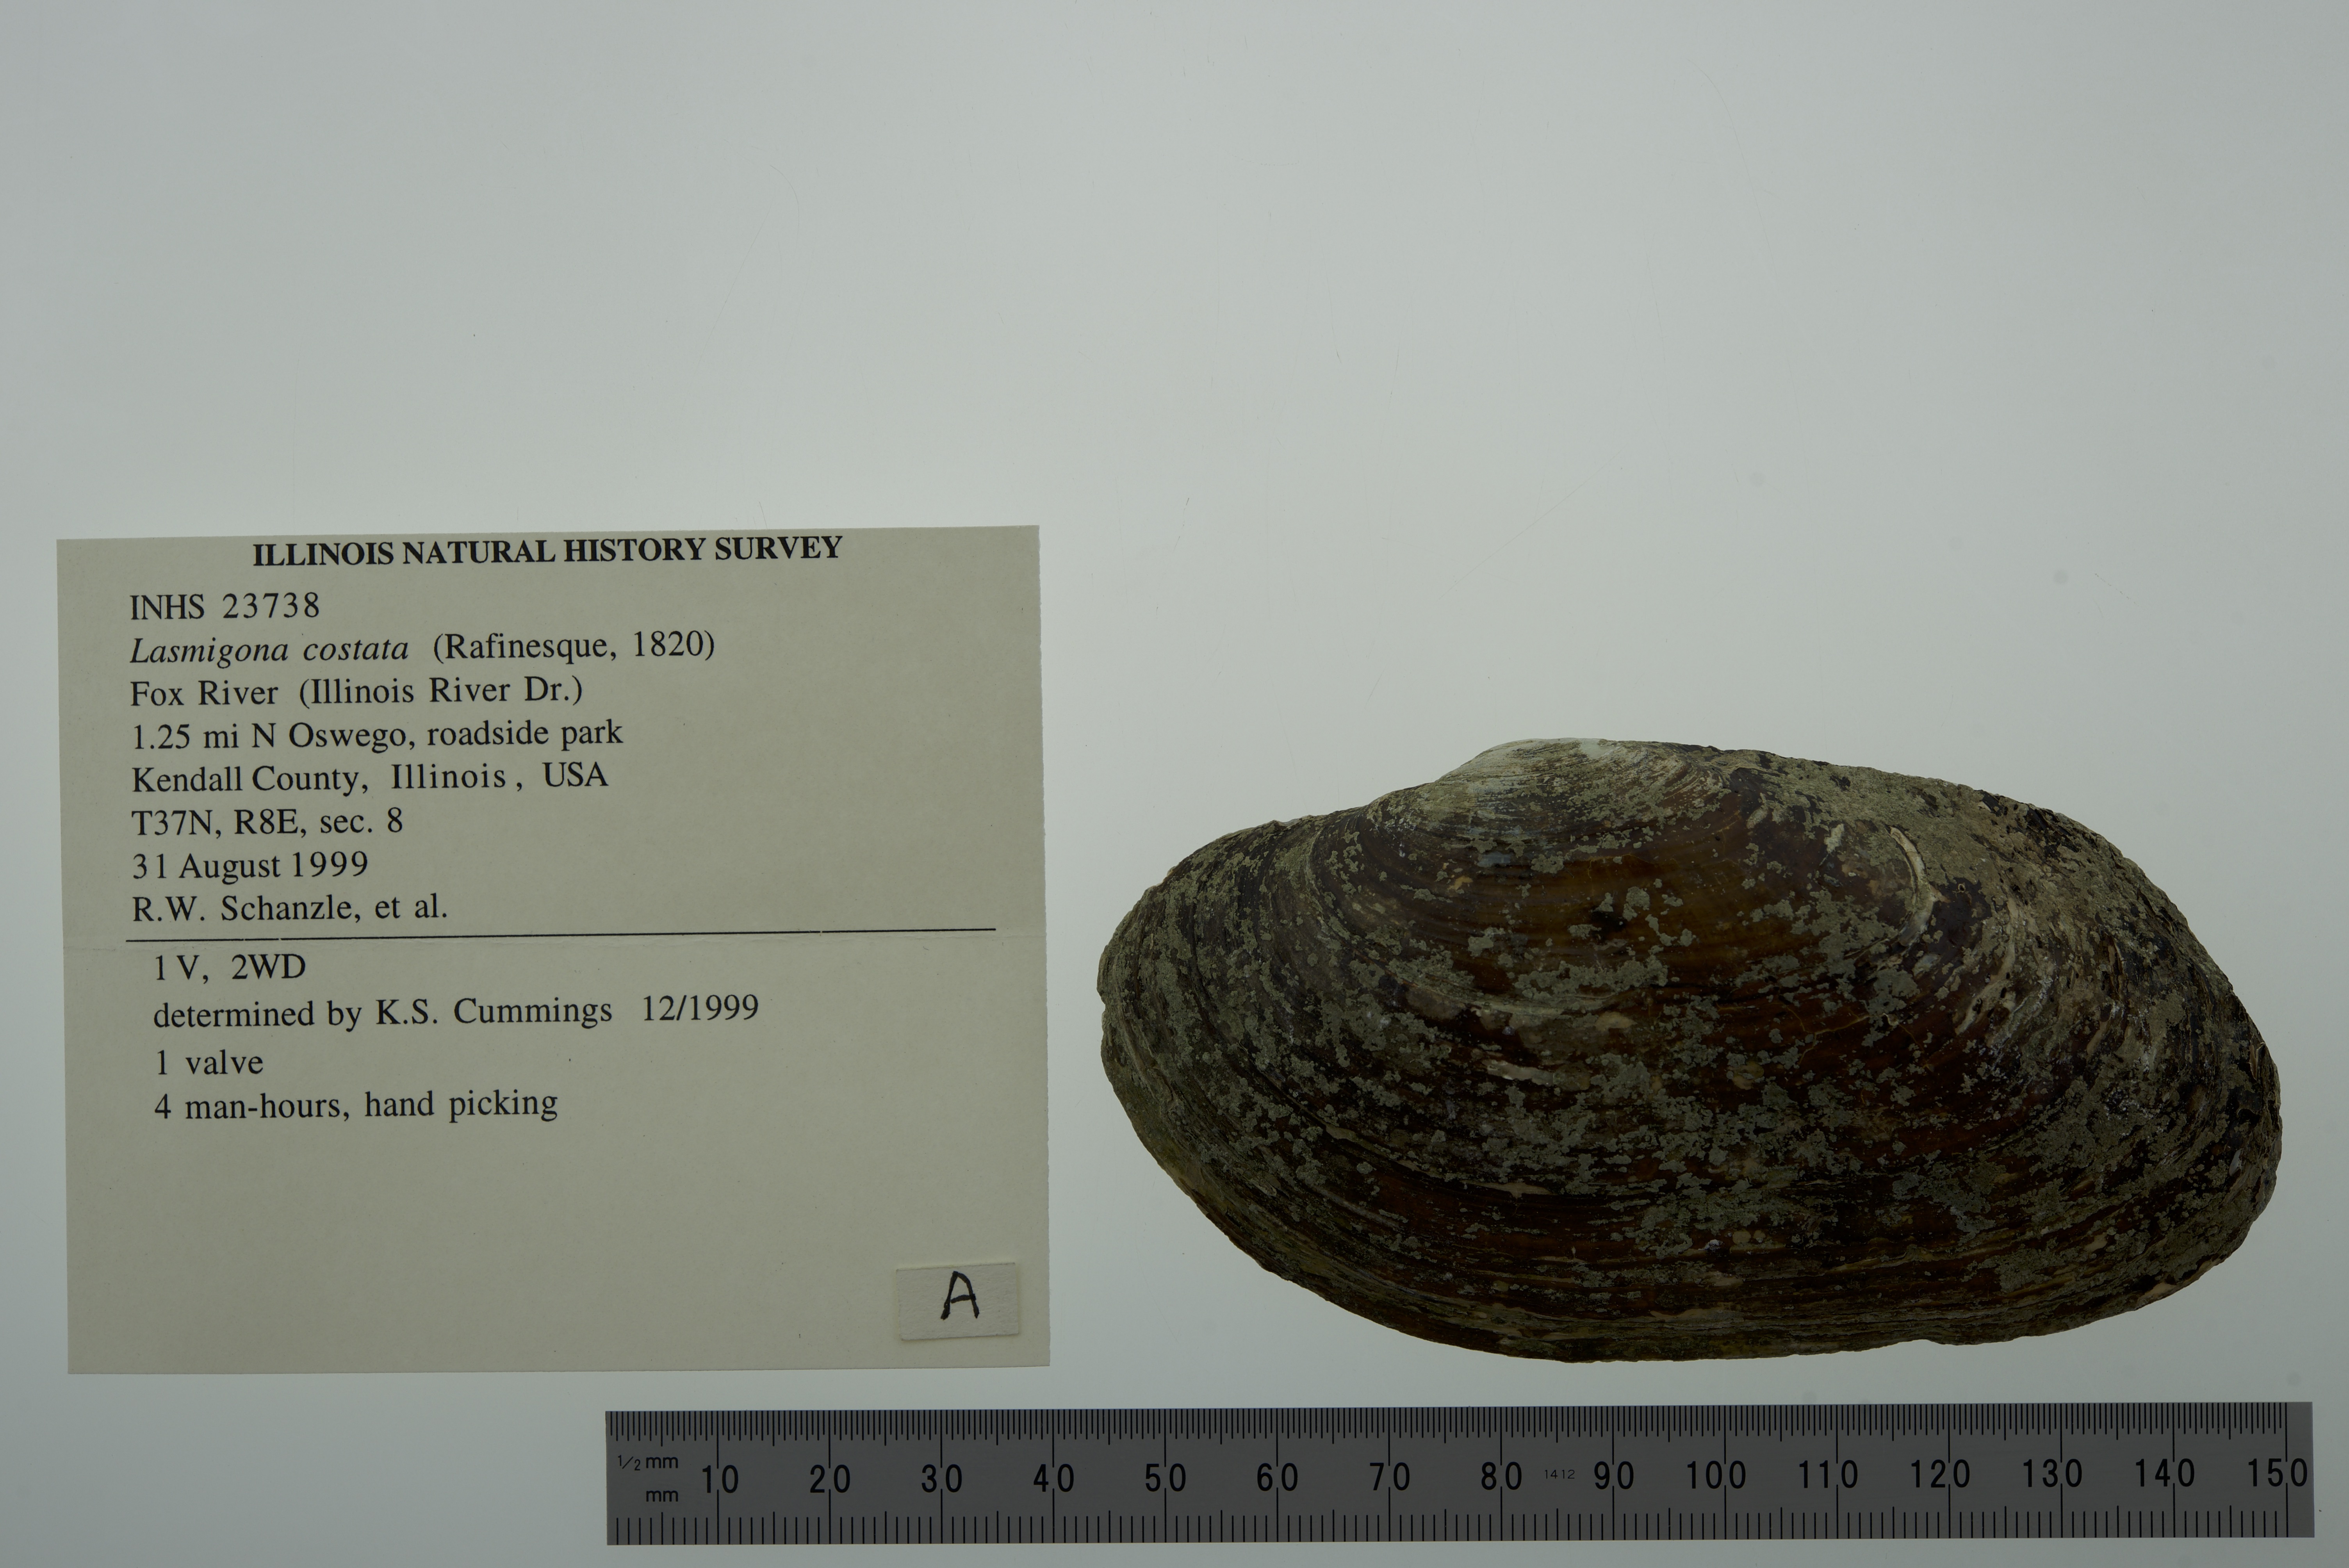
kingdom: Animalia
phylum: Mollusca
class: Bivalvia
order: Unionida
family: Unionidae
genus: Lasmigona
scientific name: Lasmigona costata
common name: Flutedshell
